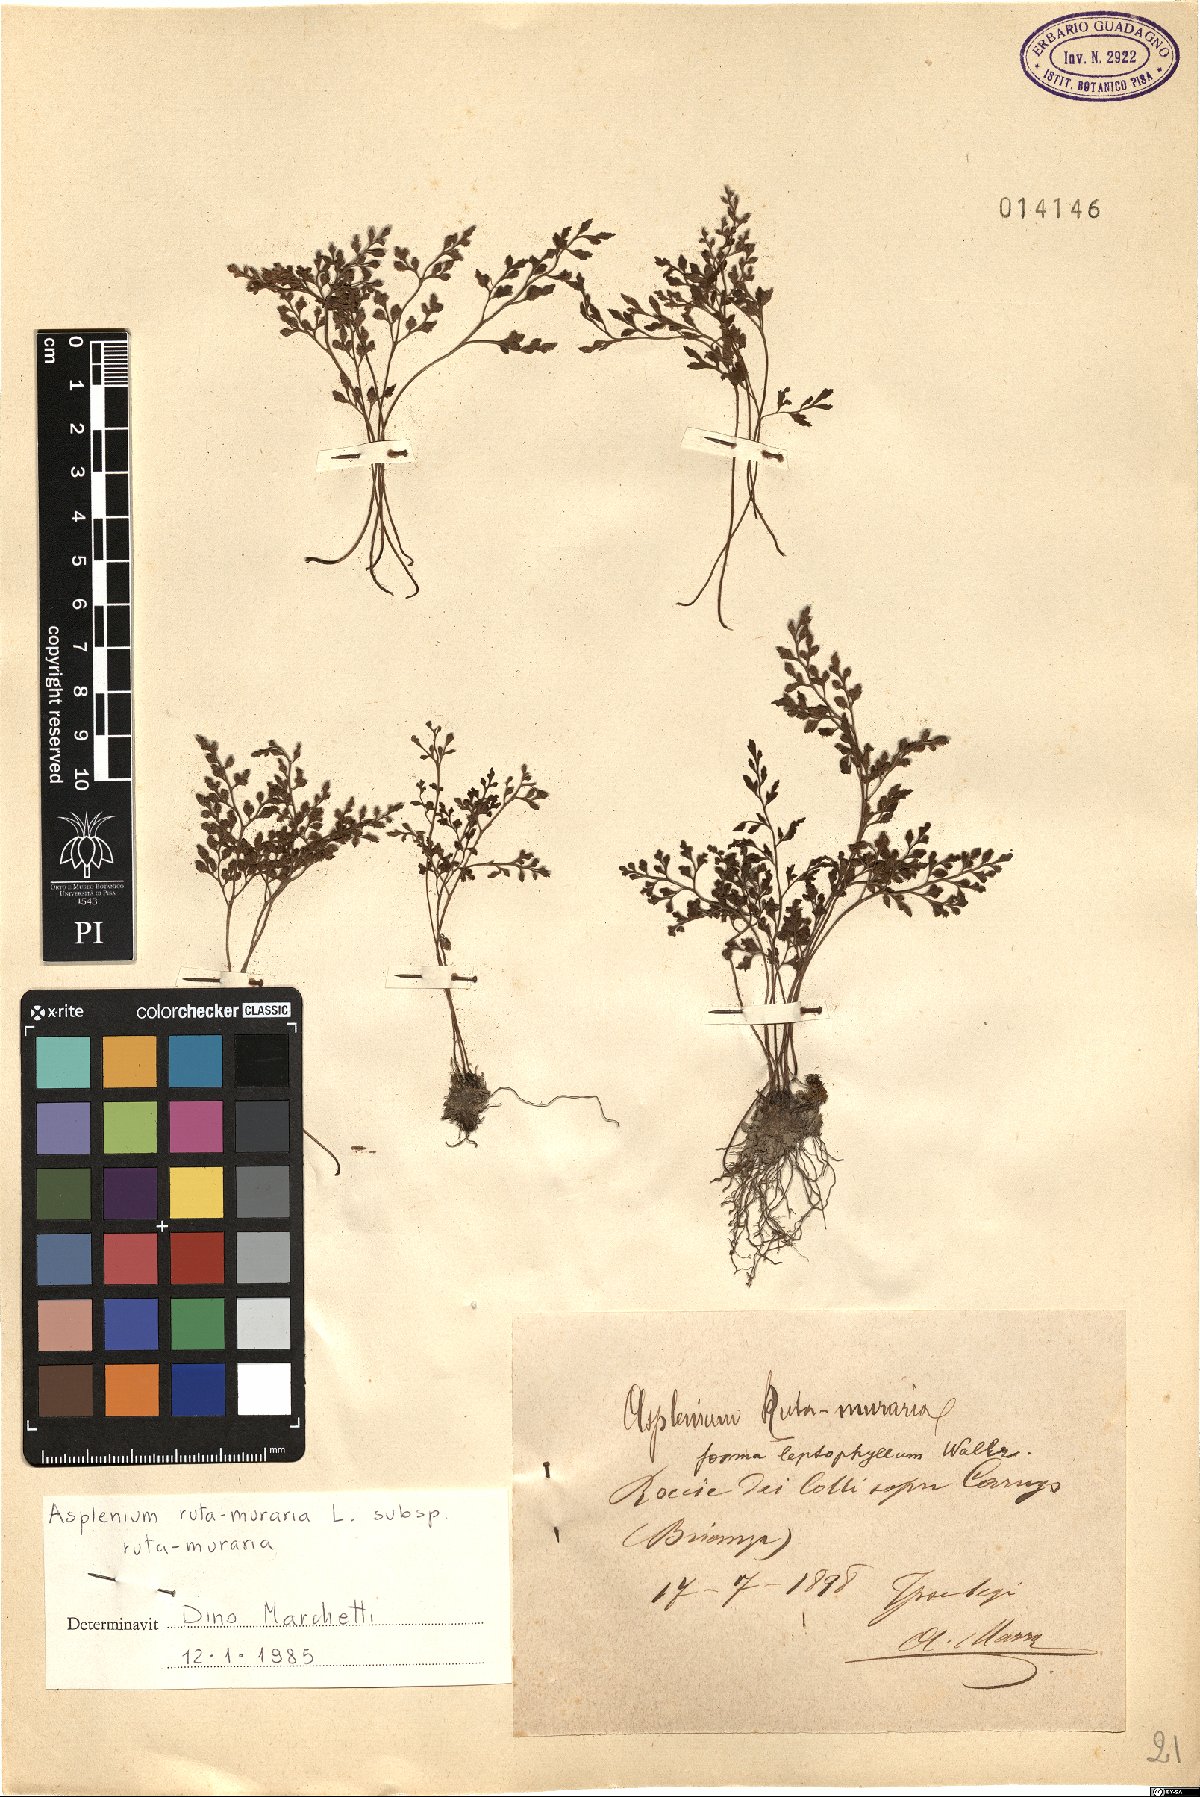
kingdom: Plantae
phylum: Tracheophyta
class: Polypodiopsida
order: Polypodiales
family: Aspleniaceae
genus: Asplenium
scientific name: Asplenium ruta-muraria
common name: Wall-rue
